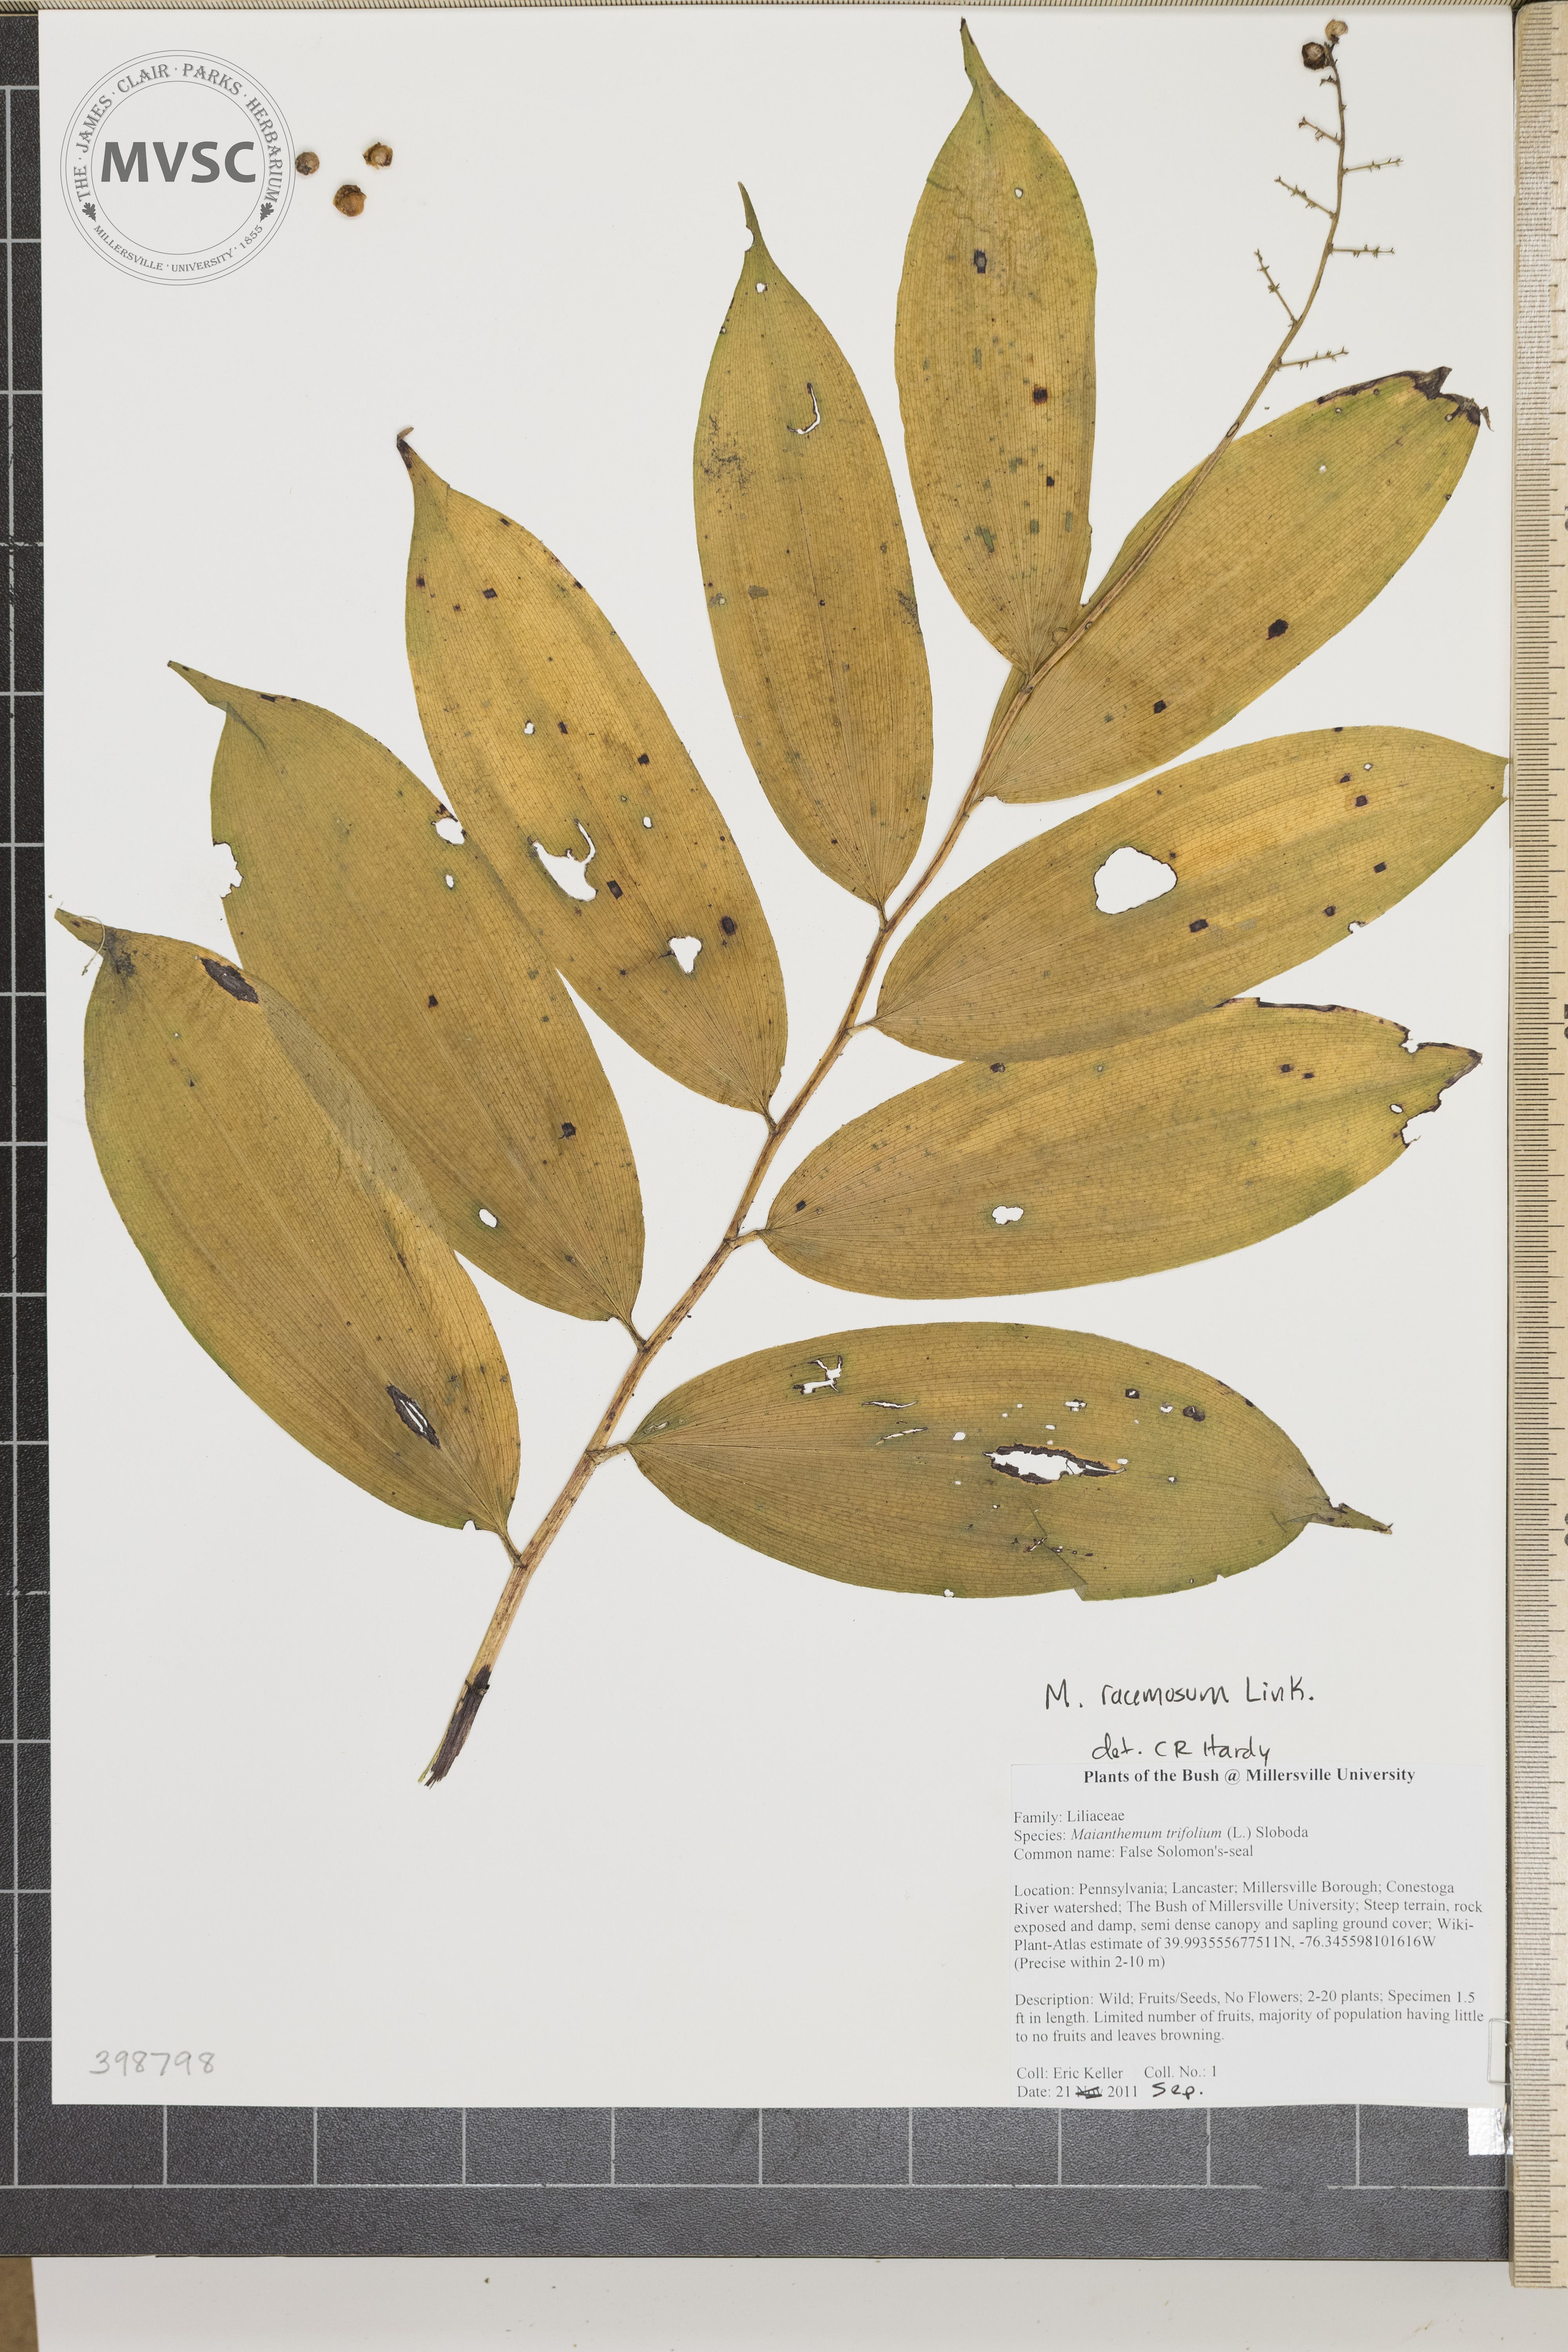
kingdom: Plantae
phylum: Tracheophyta
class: Liliopsida
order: Asparagales
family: Asparagaceae
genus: Maianthemum
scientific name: Maianthemum racemosum
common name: False solomon's-seal
